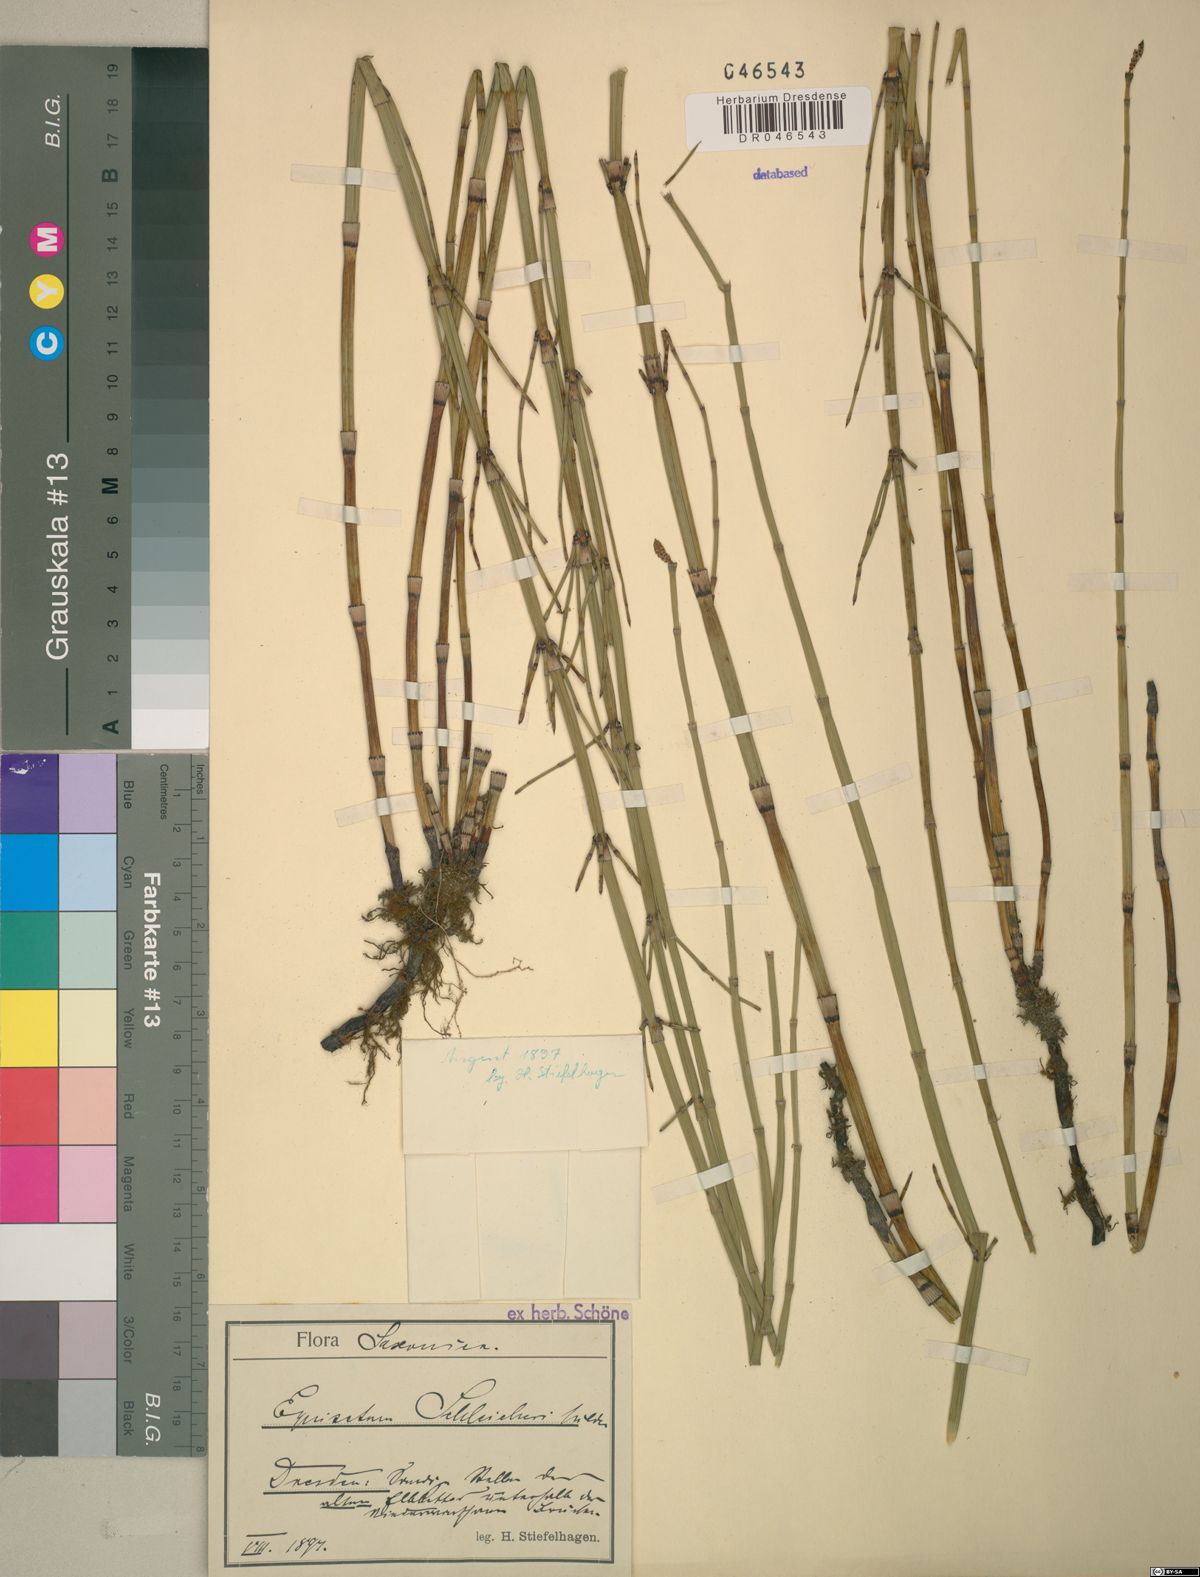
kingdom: Plantae
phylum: Tracheophyta
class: Polypodiopsida
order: Equisetales
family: Equisetaceae
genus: Equisetum
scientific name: Equisetum moorei
